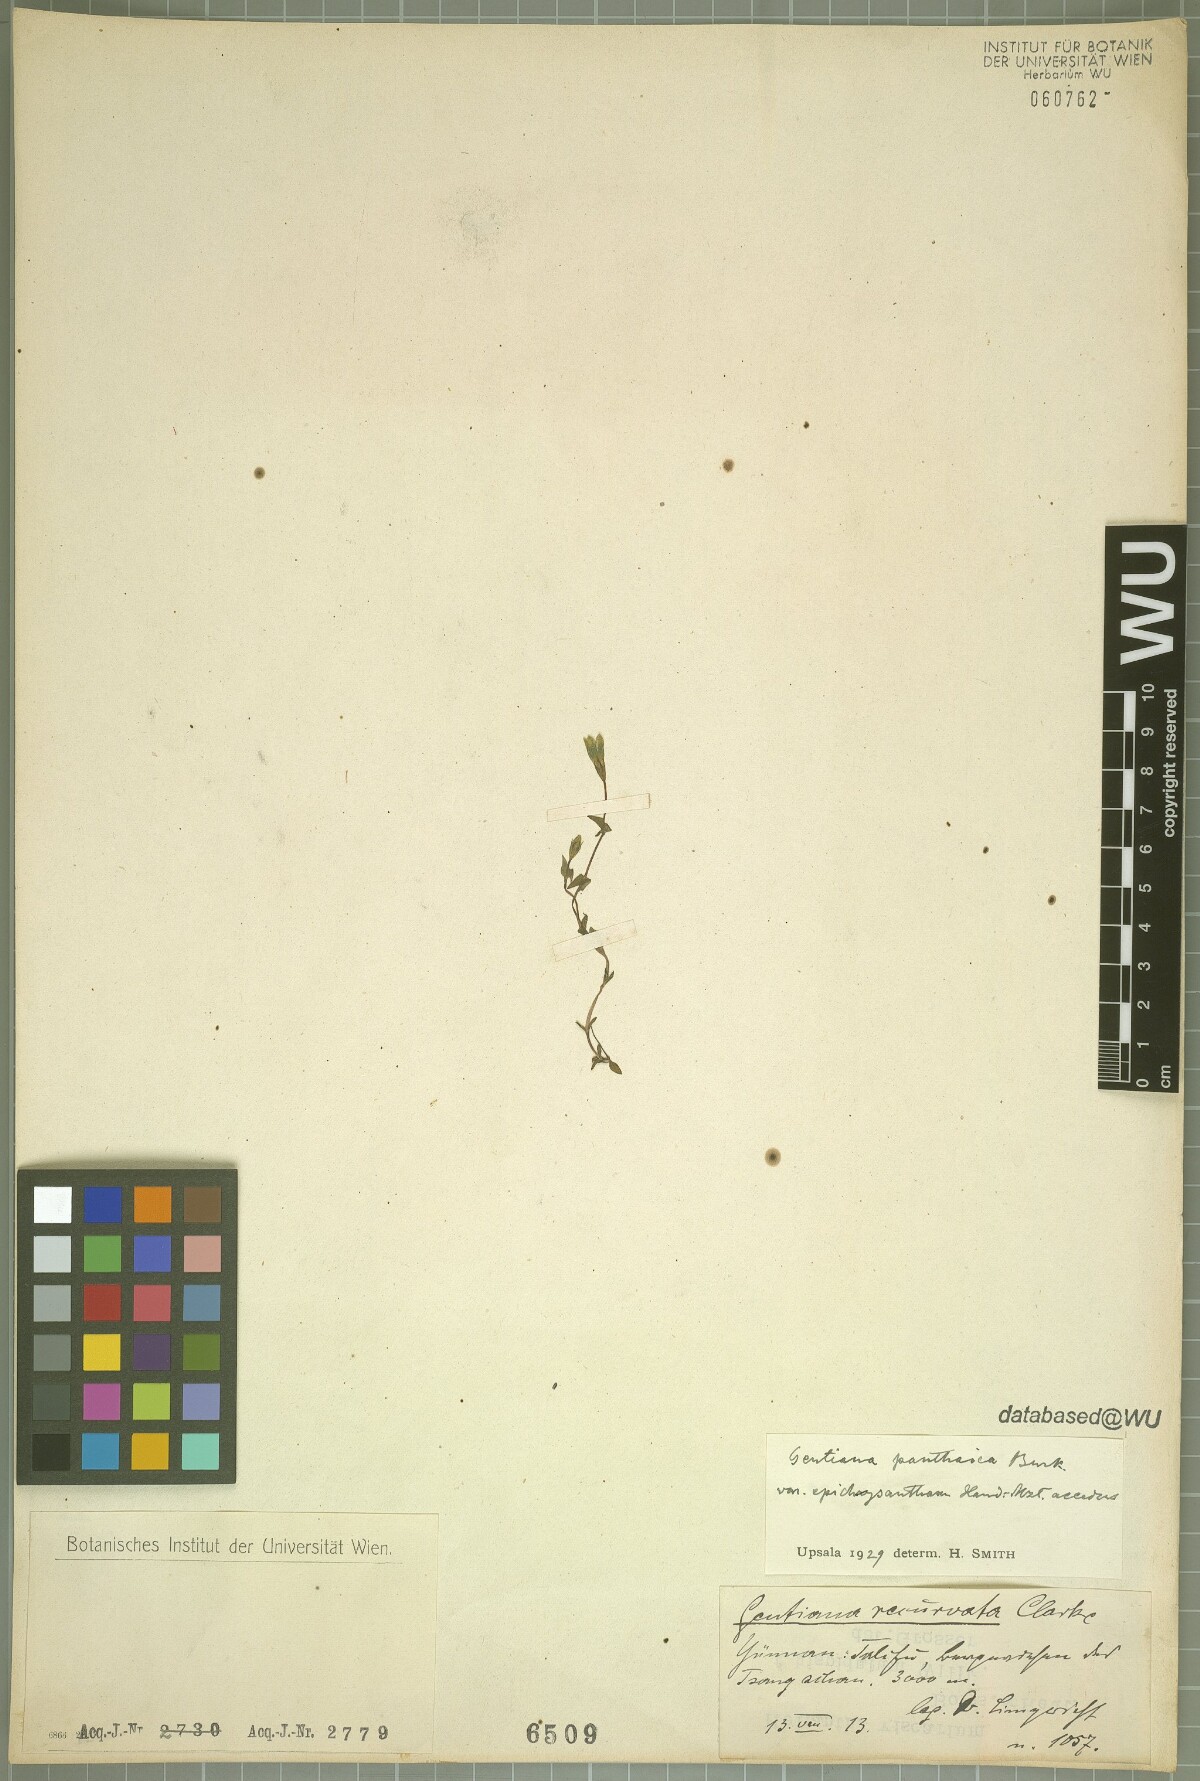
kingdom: Plantae
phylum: Tracheophyta
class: Magnoliopsida
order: Gentianales
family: Gentianaceae
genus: Gentiana
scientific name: Gentiana panthaica
